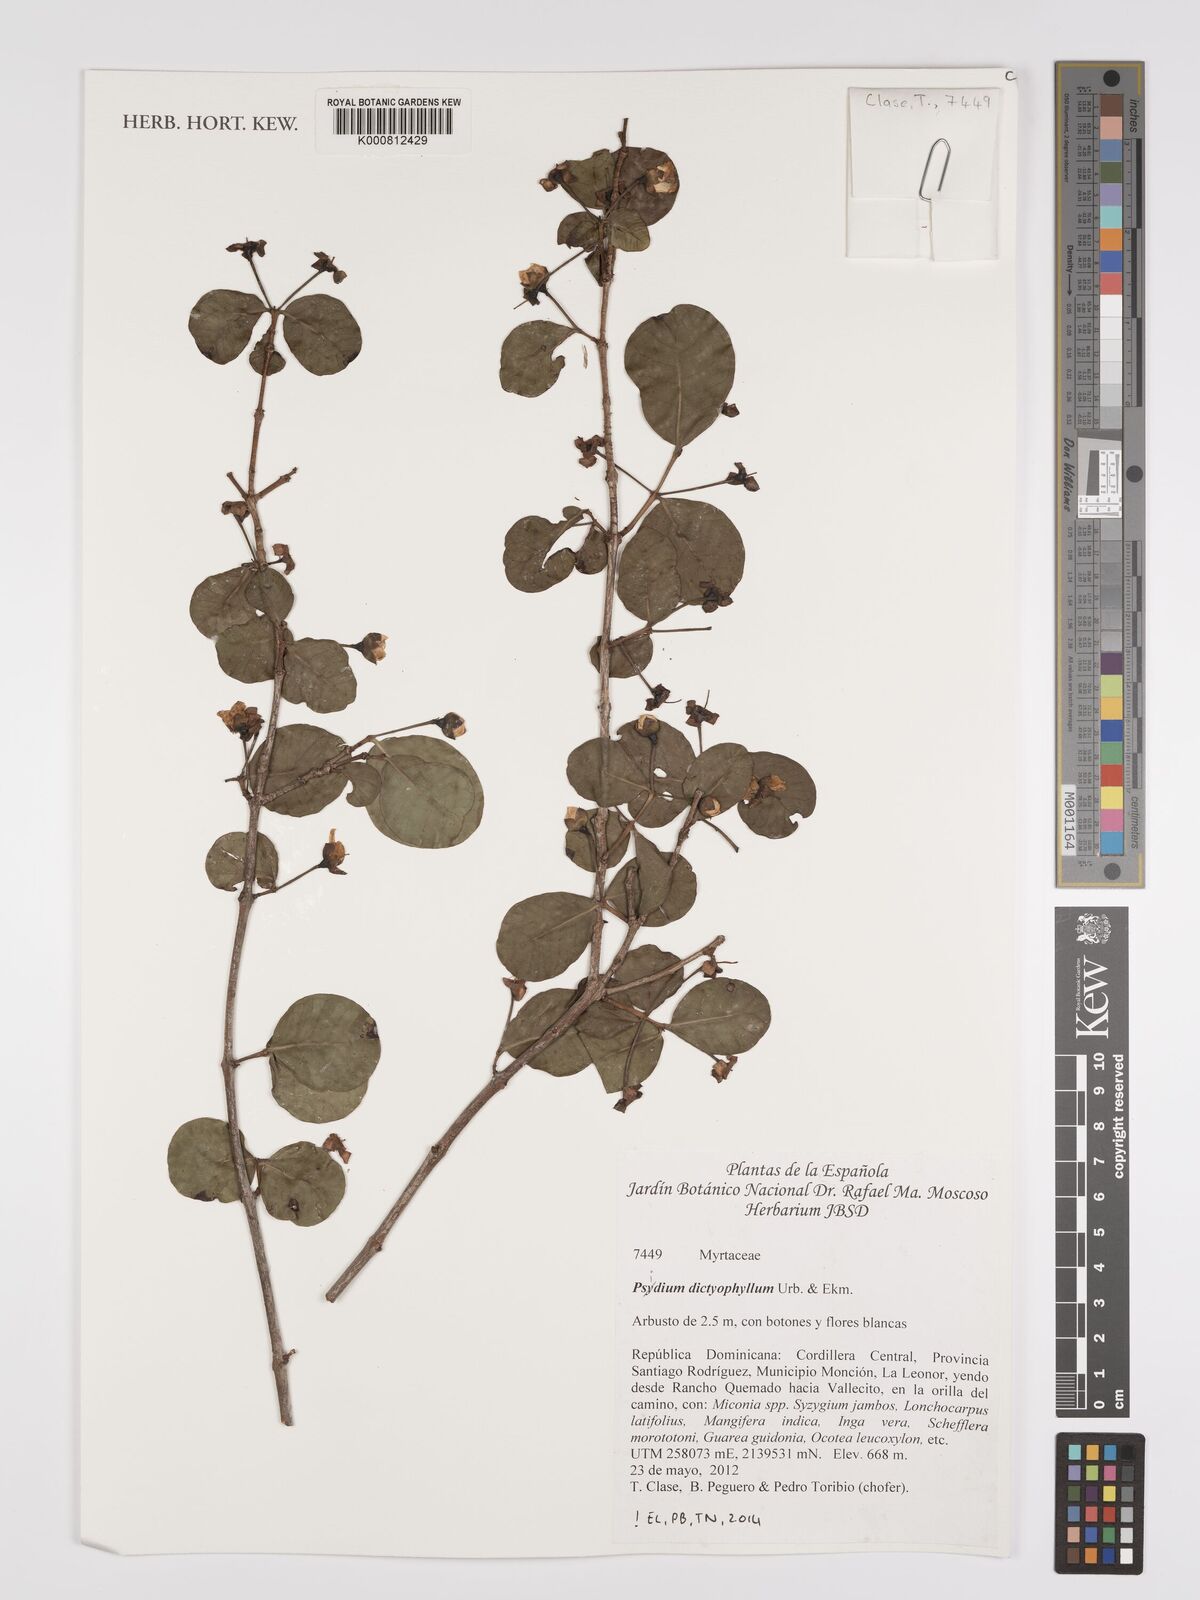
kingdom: Plantae
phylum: Tracheophyta
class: Magnoliopsida
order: Myrtales
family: Myrtaceae
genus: Psidium
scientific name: Psidium dictyophyllum
